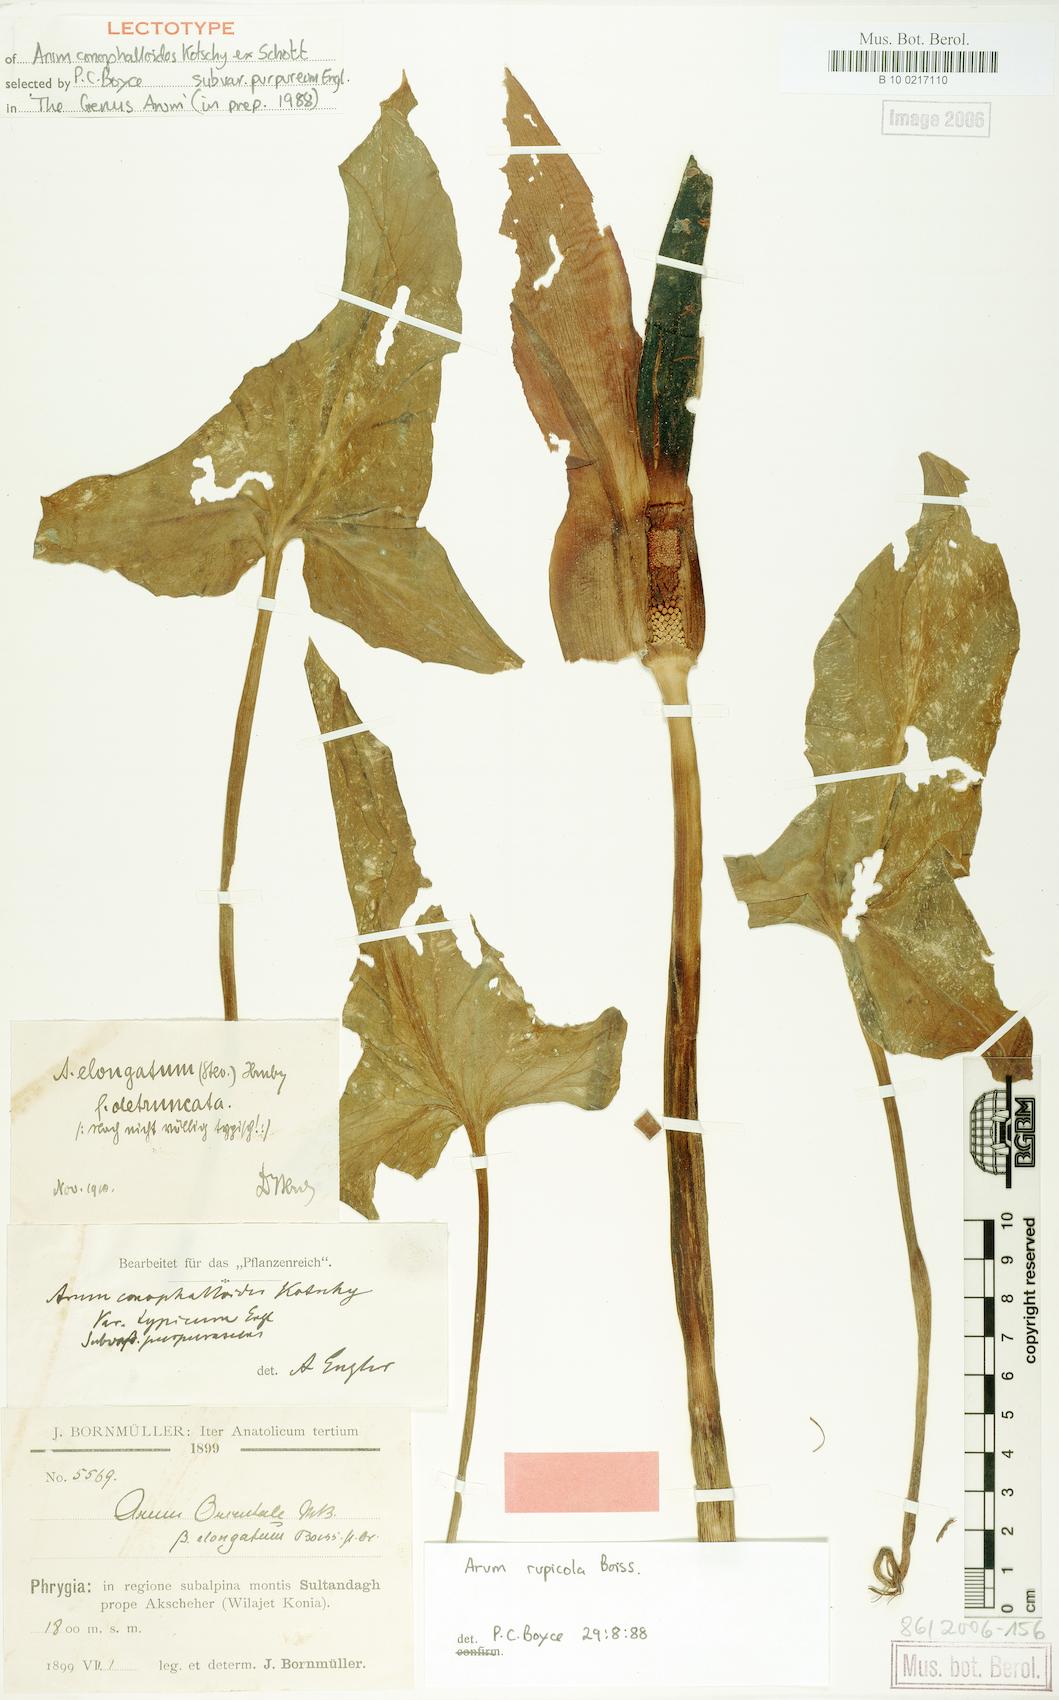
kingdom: Plantae
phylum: Tracheophyta
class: Liliopsida
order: Alismatales
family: Araceae
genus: Arum
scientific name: Arum rupicola
